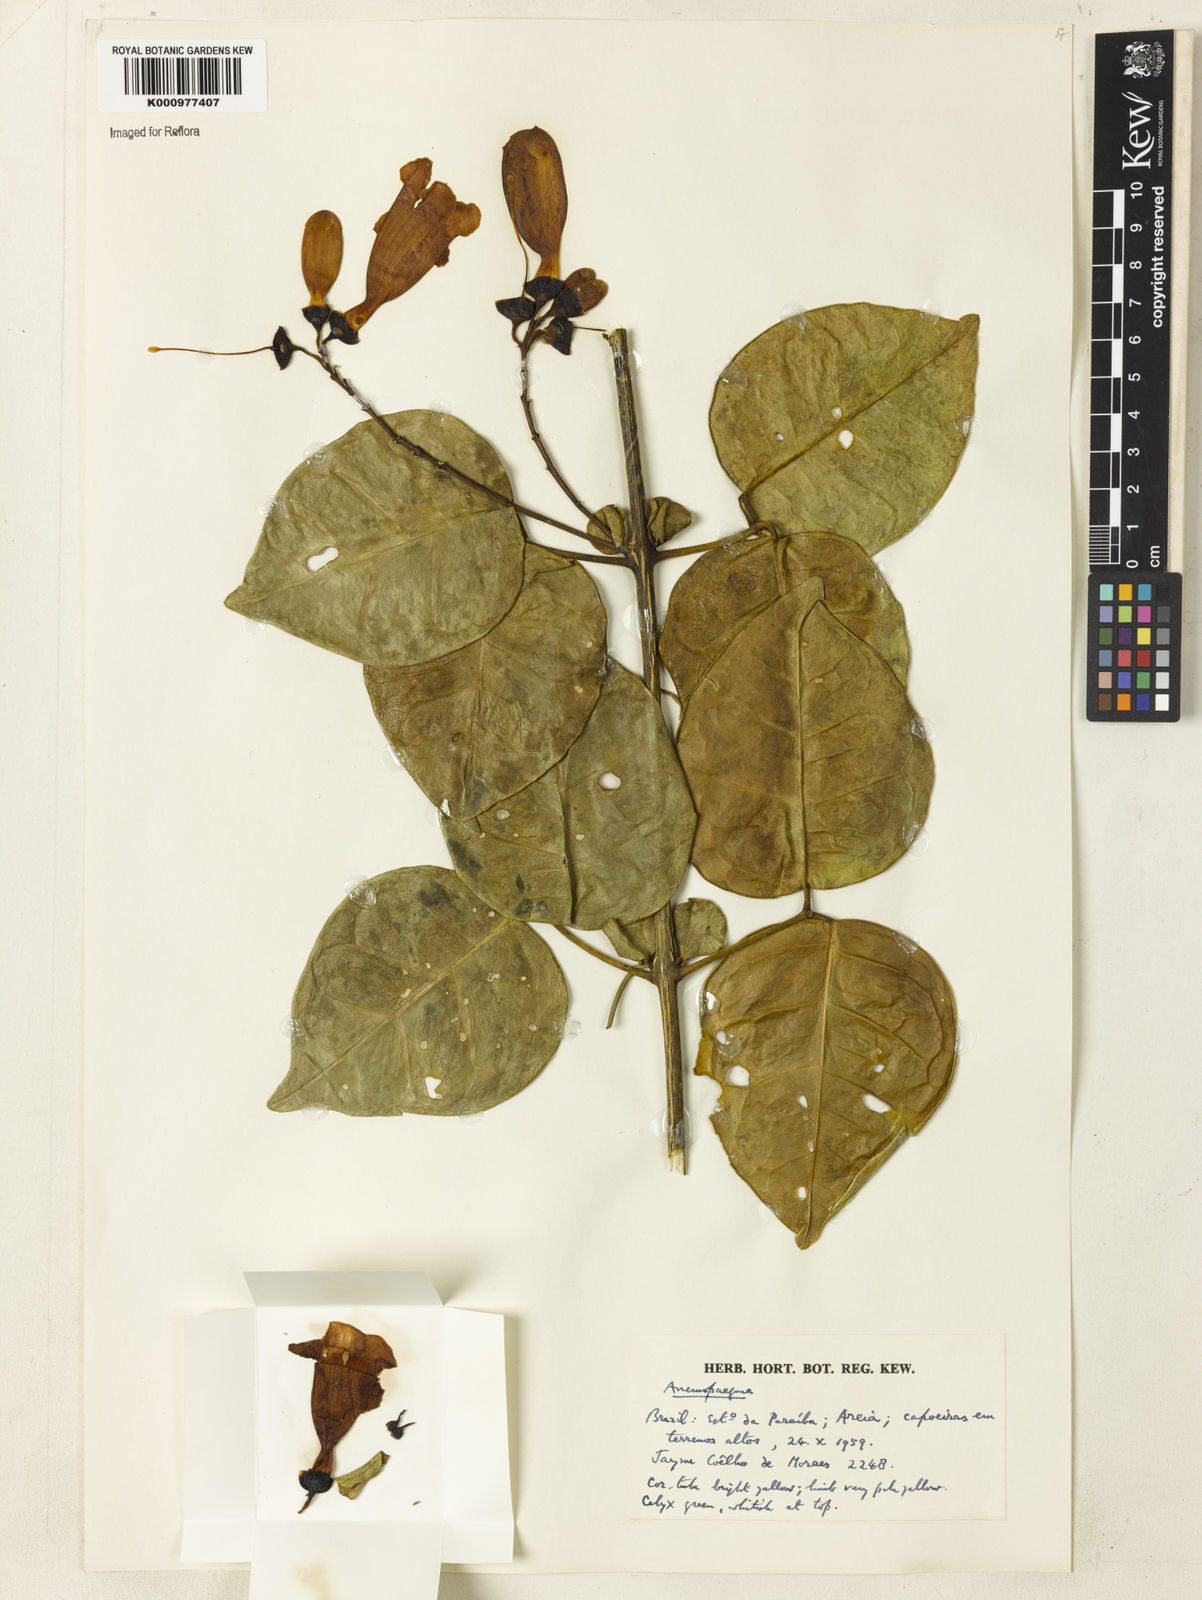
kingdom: Plantae
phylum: Tracheophyta
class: Magnoliopsida
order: Lamiales
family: Bignoniaceae
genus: Anemopaegma
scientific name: Anemopaegma
